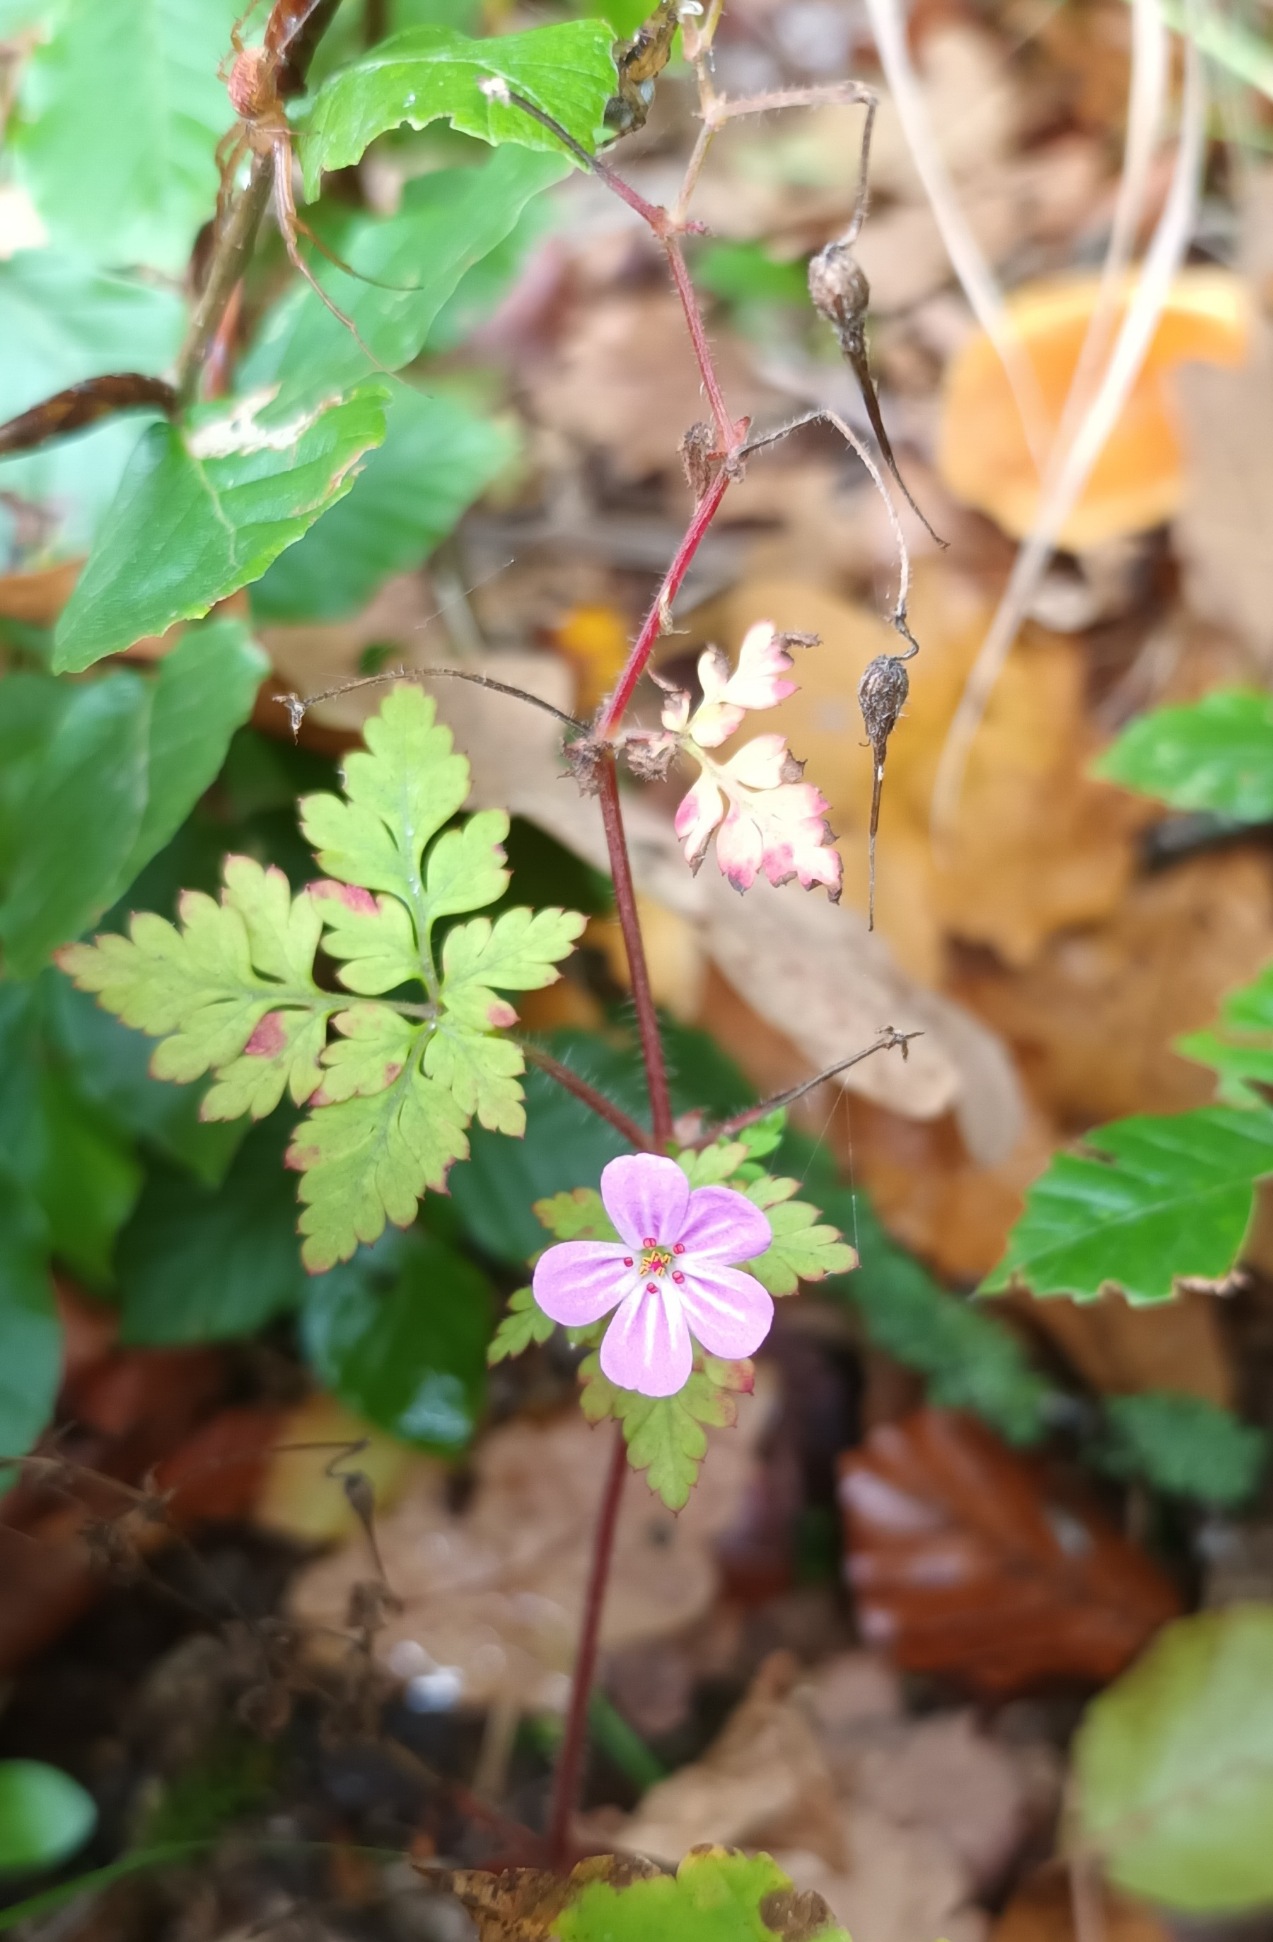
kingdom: Plantae
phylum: Tracheophyta
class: Magnoliopsida
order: Geraniales
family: Geraniaceae
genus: Geranium
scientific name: Geranium robertianum
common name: Stinkende storkenæb
